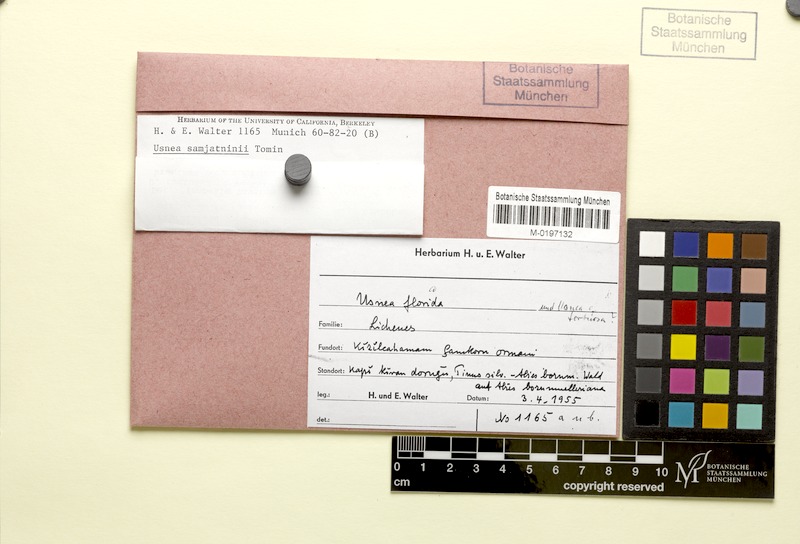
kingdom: Fungi
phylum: Ascomycota
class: Lecanoromycetes
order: Lecanorales
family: Parmeliaceae
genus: Usnea
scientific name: Usnea
